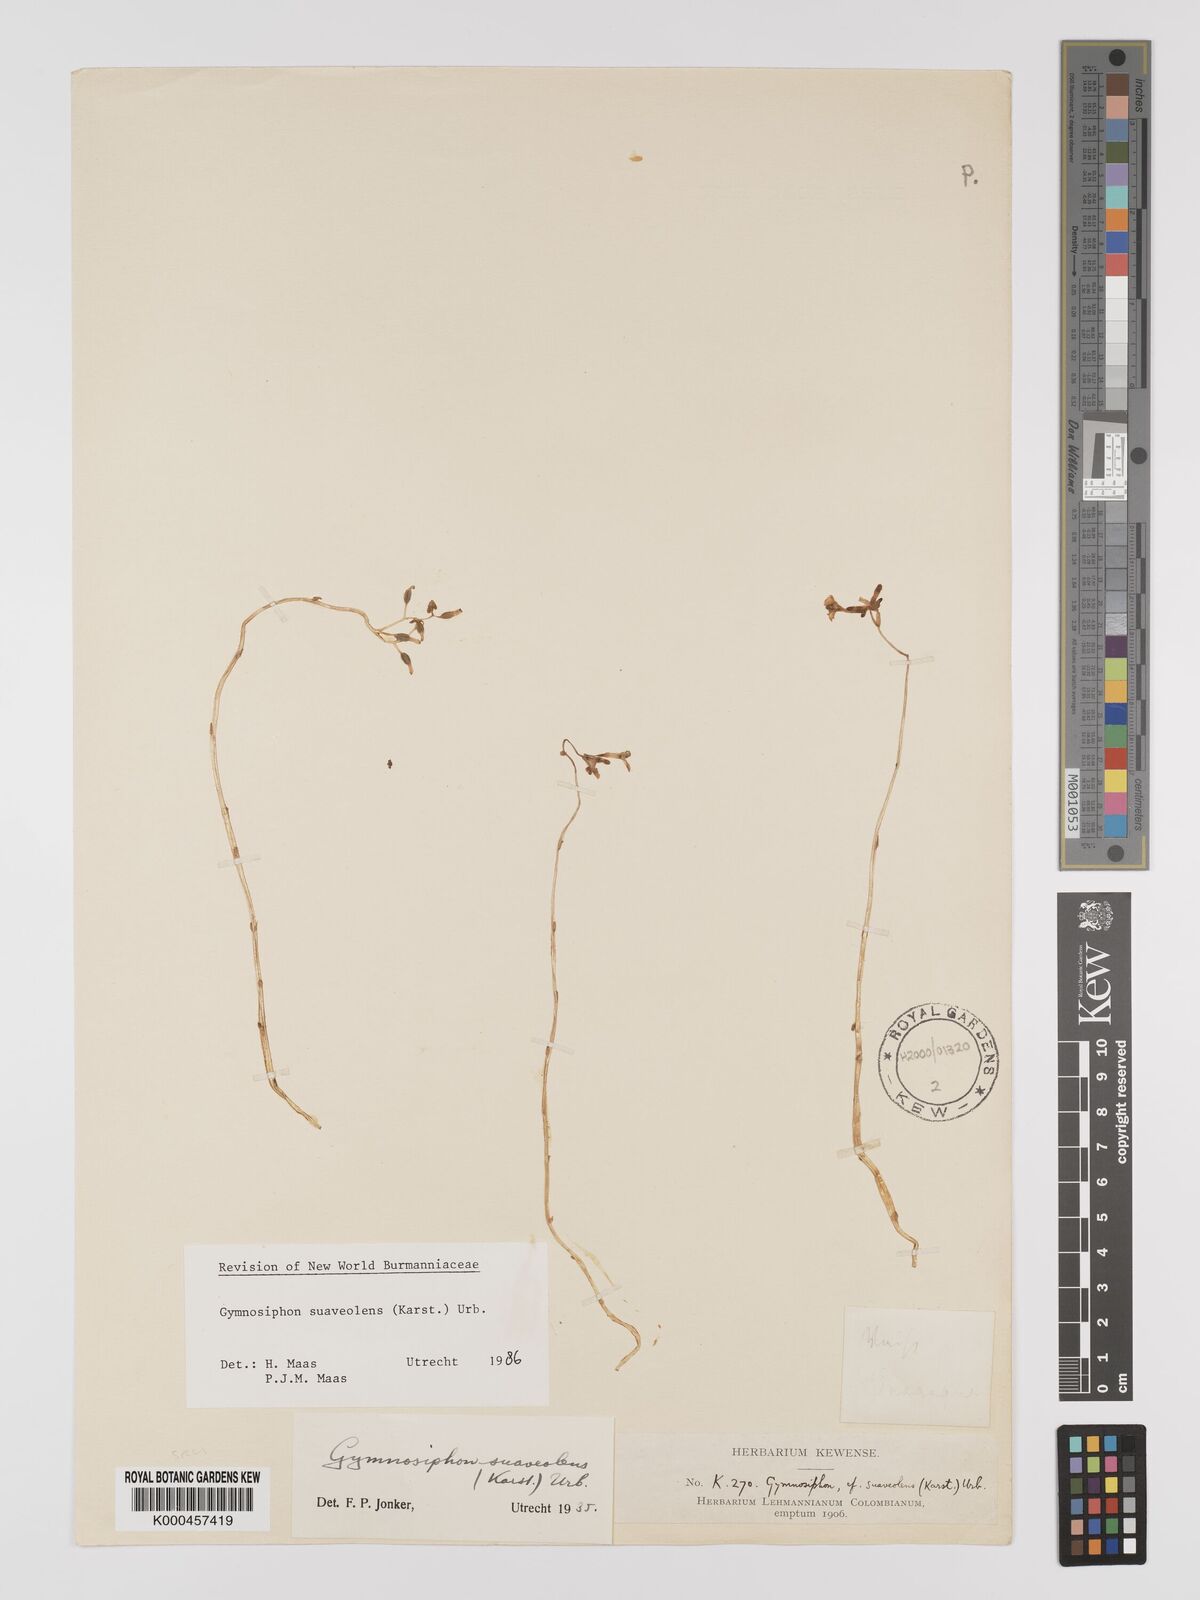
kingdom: Plantae
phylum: Tracheophyta
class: Liliopsida
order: Dioscoreales
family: Burmanniaceae
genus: Gymnosiphon
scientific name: Gymnosiphon suaveolens
